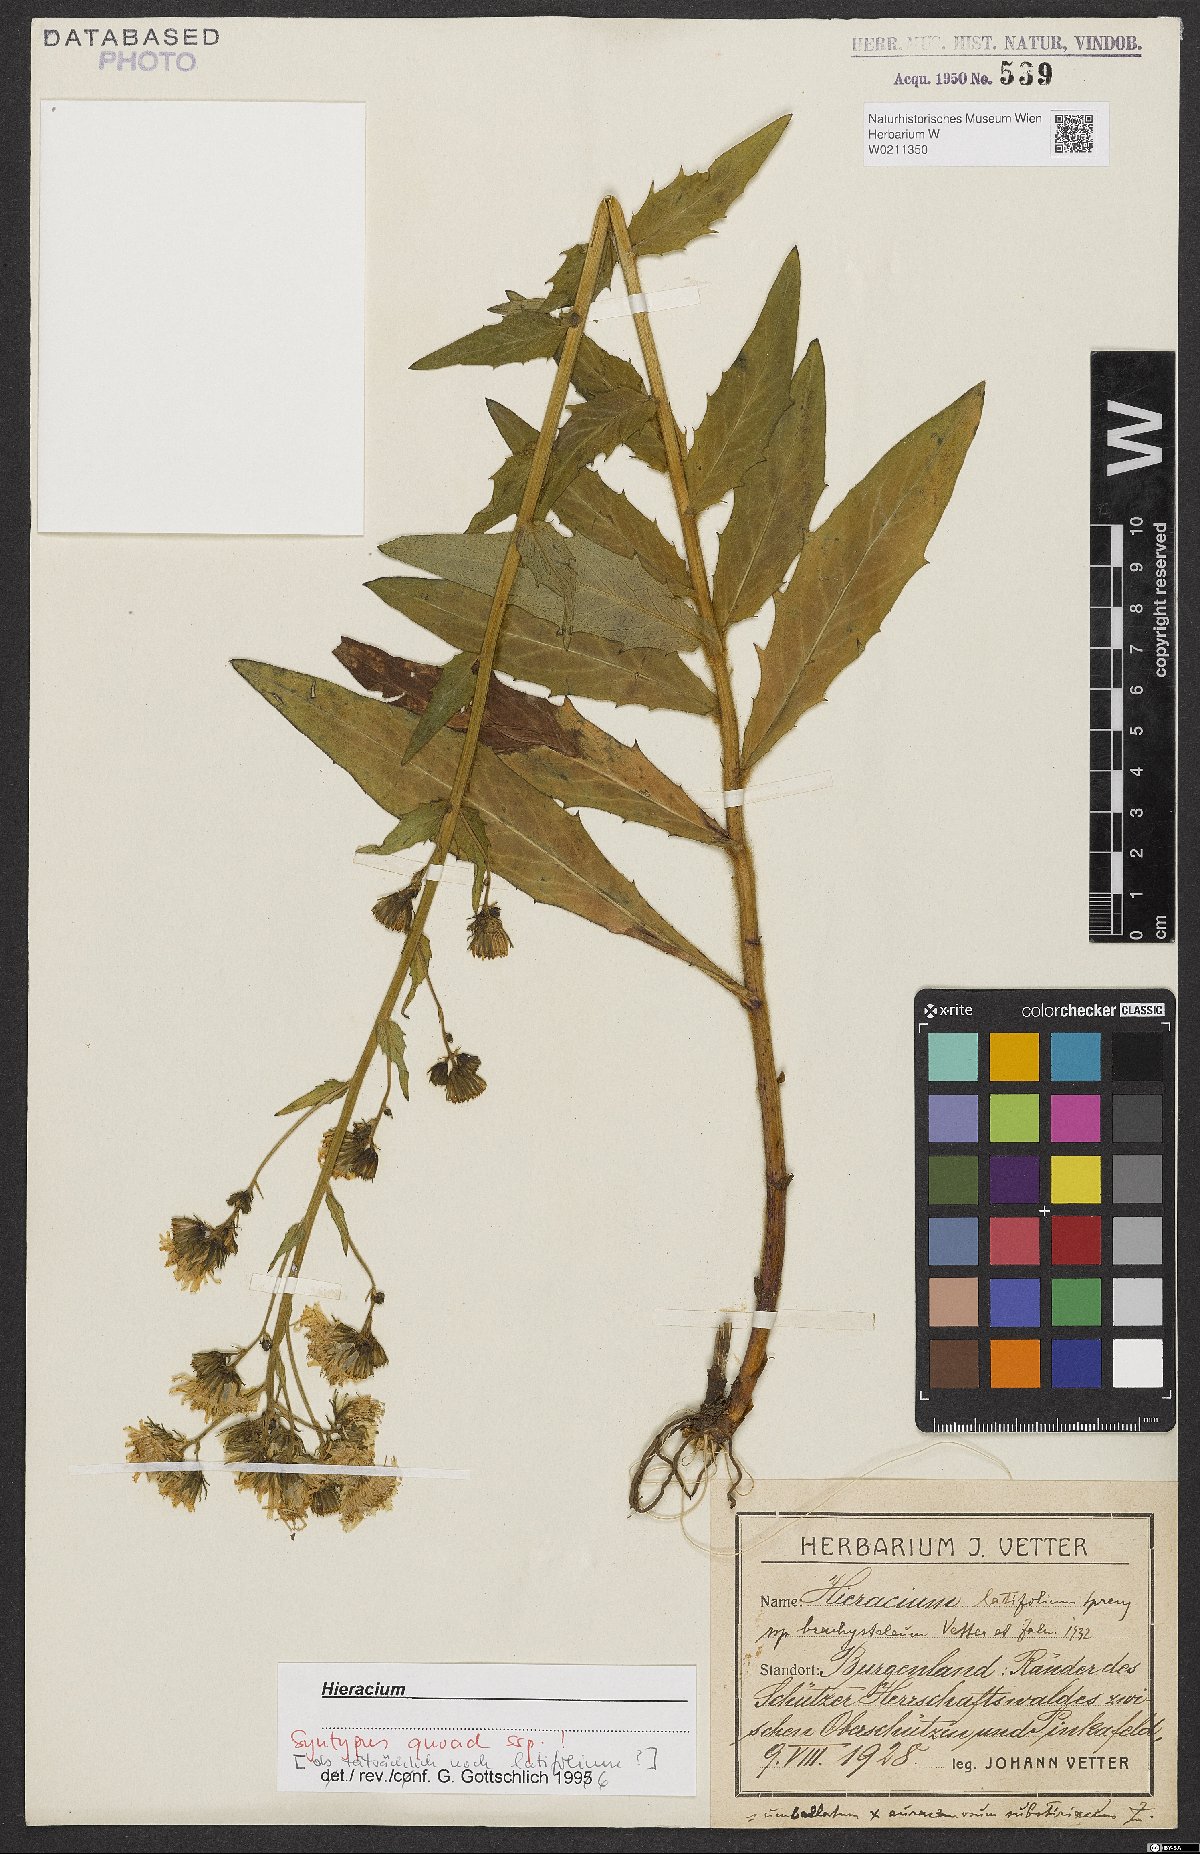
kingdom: Plantae
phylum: Tracheophyta
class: Magnoliopsida
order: Asterales
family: Asteraceae
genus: Hieracium
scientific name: Hieracium latifolium
